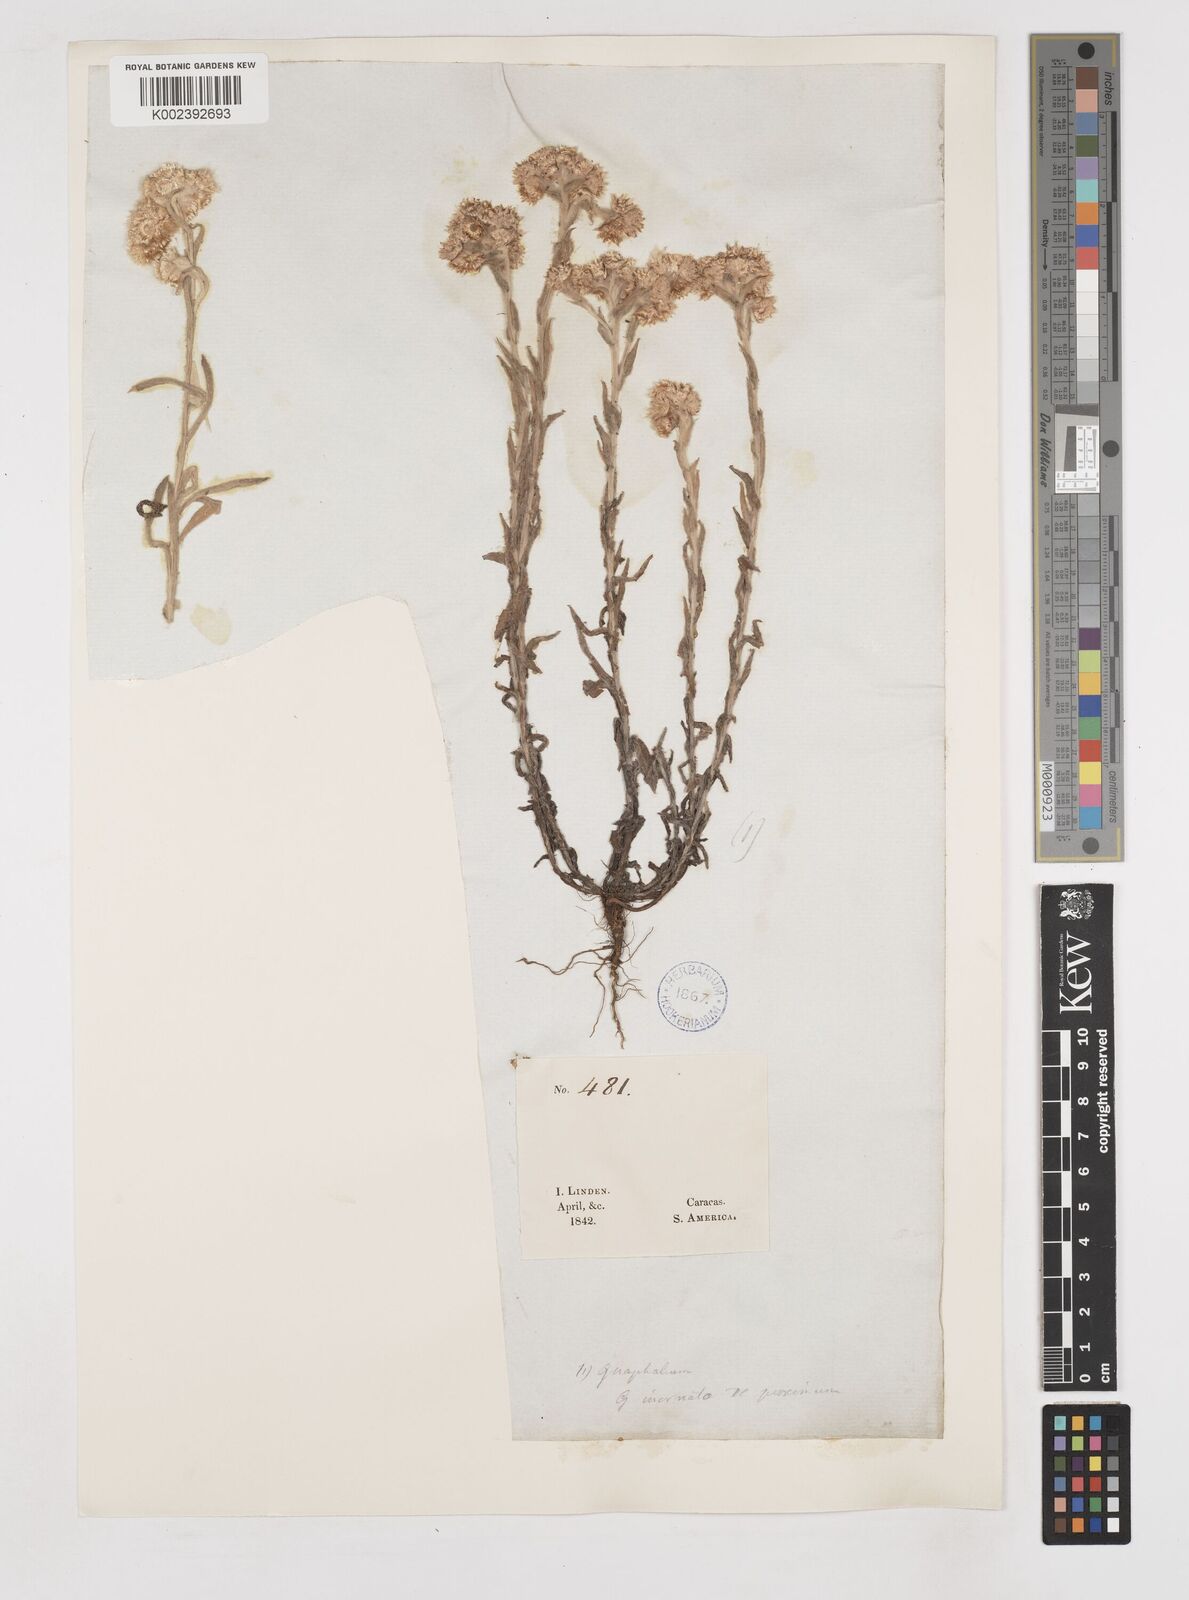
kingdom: Plantae
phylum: Tracheophyta
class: Magnoliopsida
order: Asterales
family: Asteraceae
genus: Gnaphalium
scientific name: Gnaphalium
